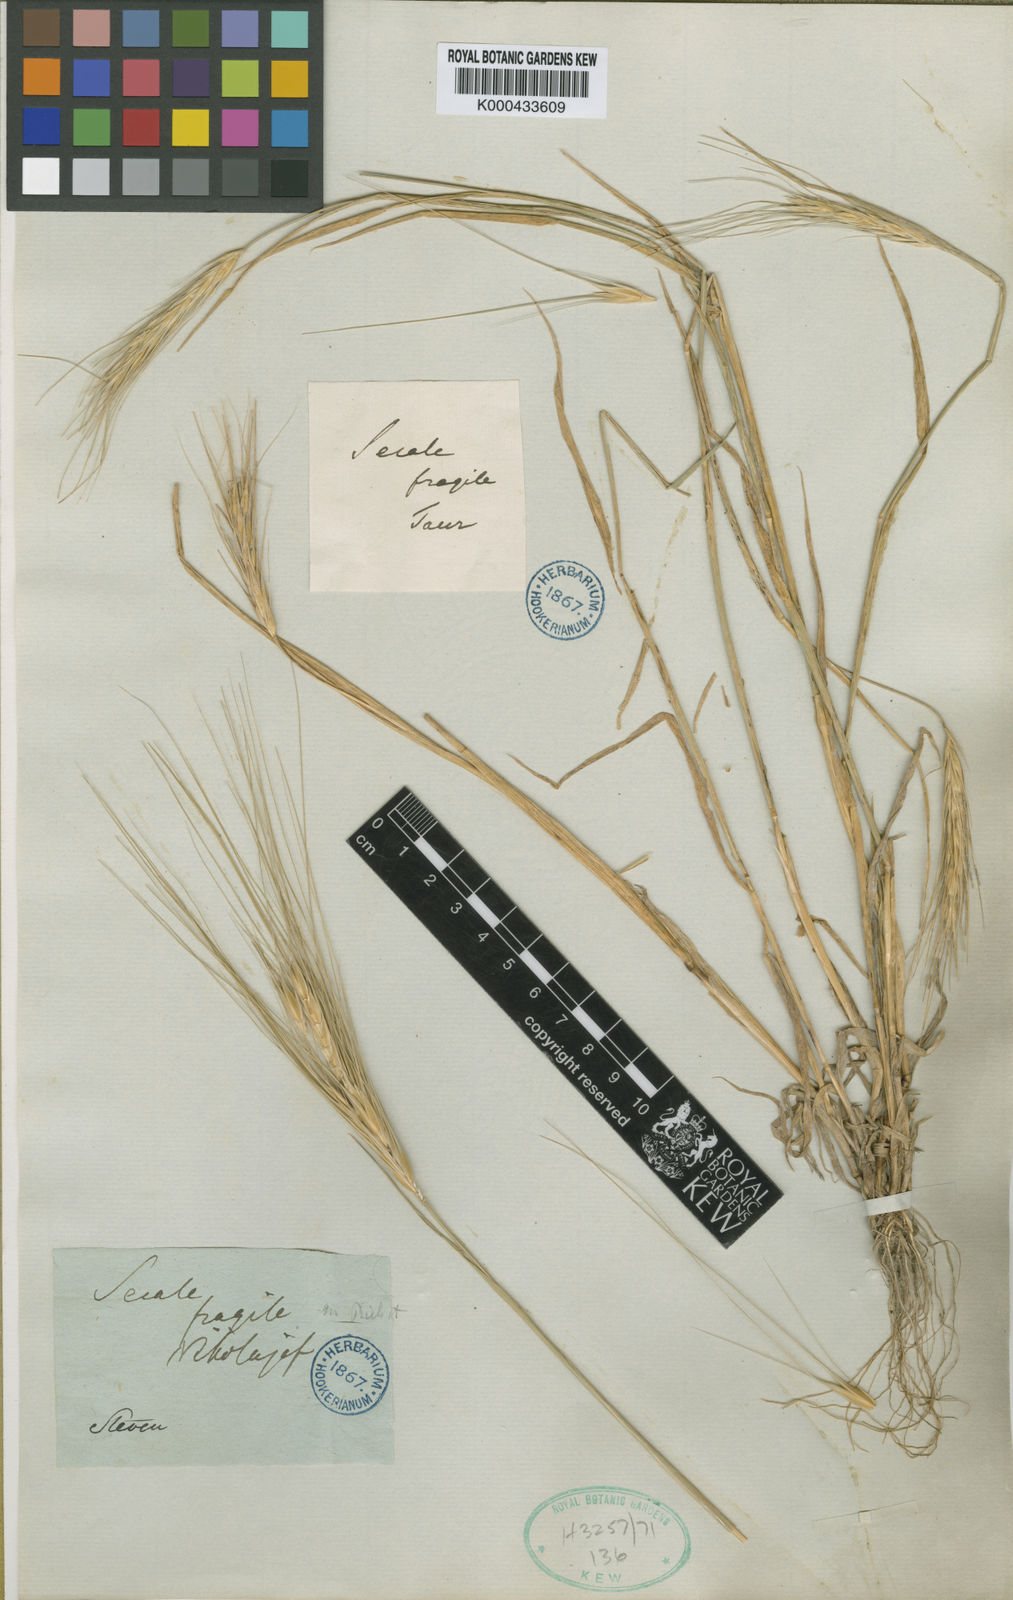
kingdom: Plantae
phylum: Tracheophyta
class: Liliopsida
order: Poales
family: Poaceae
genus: Secale
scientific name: Secale sylvestre
